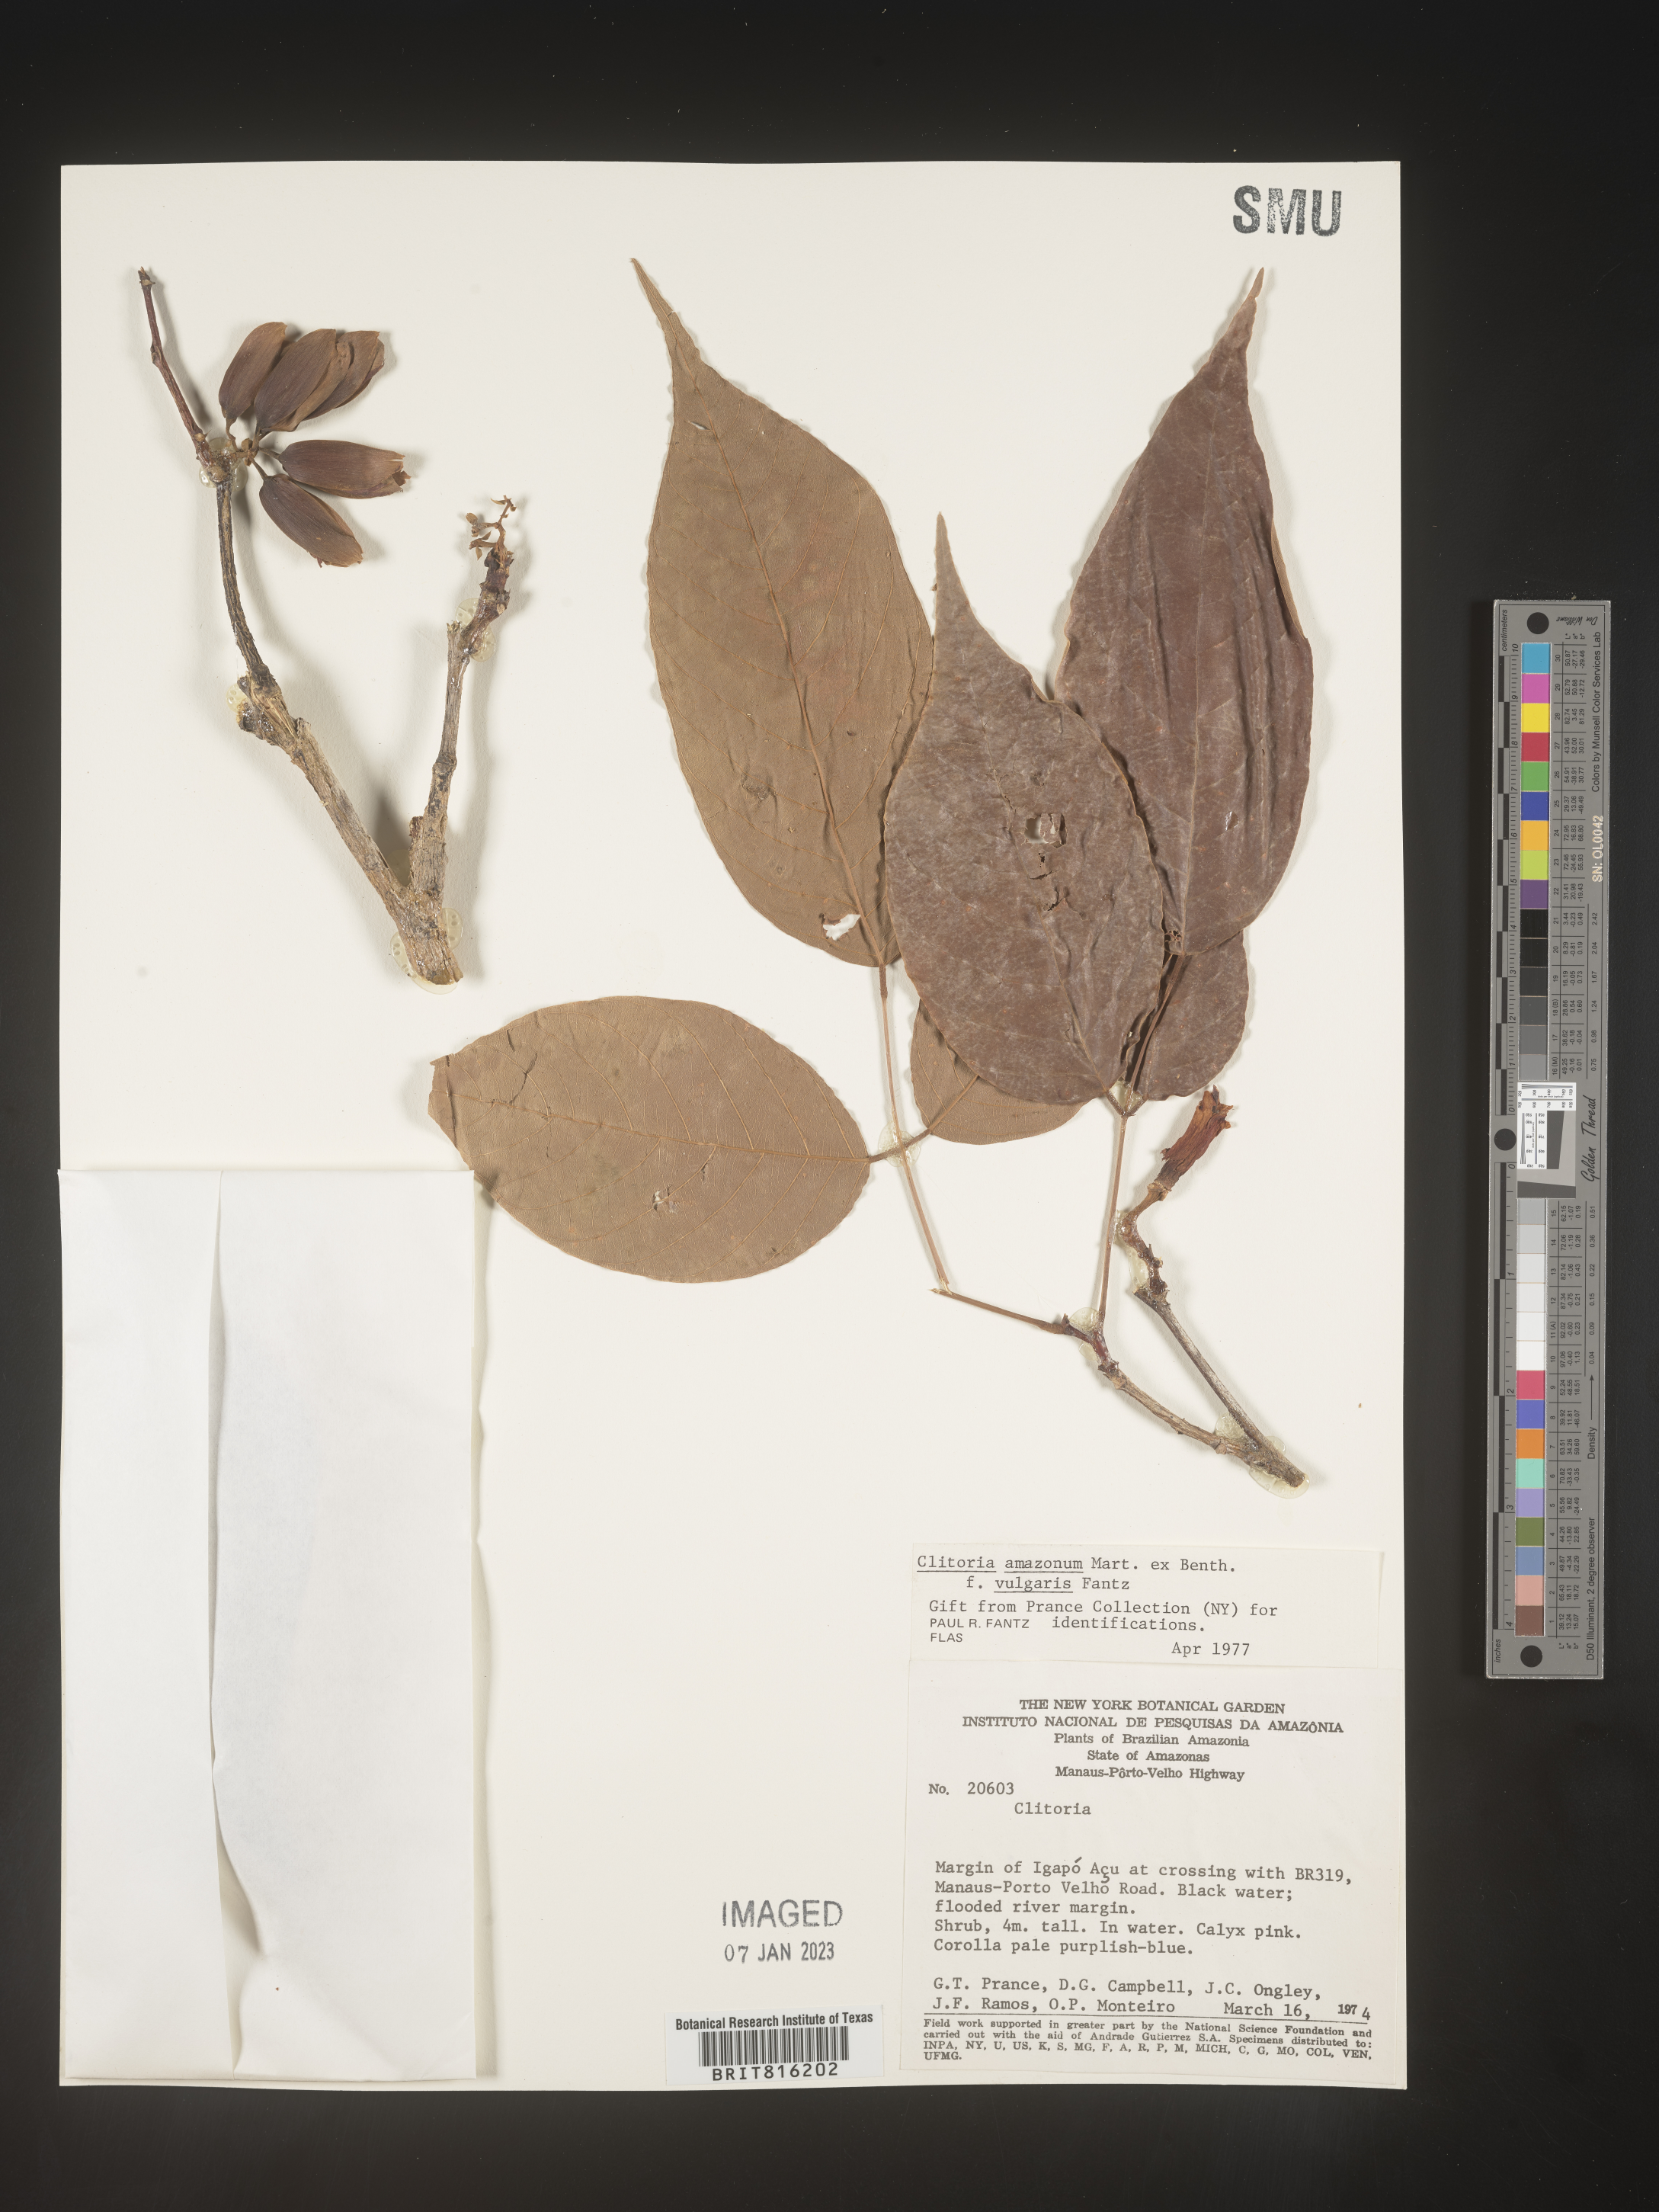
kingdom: Plantae
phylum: Tracheophyta
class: Magnoliopsida
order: Fabales
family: Fabaceae
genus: Clitoria
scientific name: Clitoria
